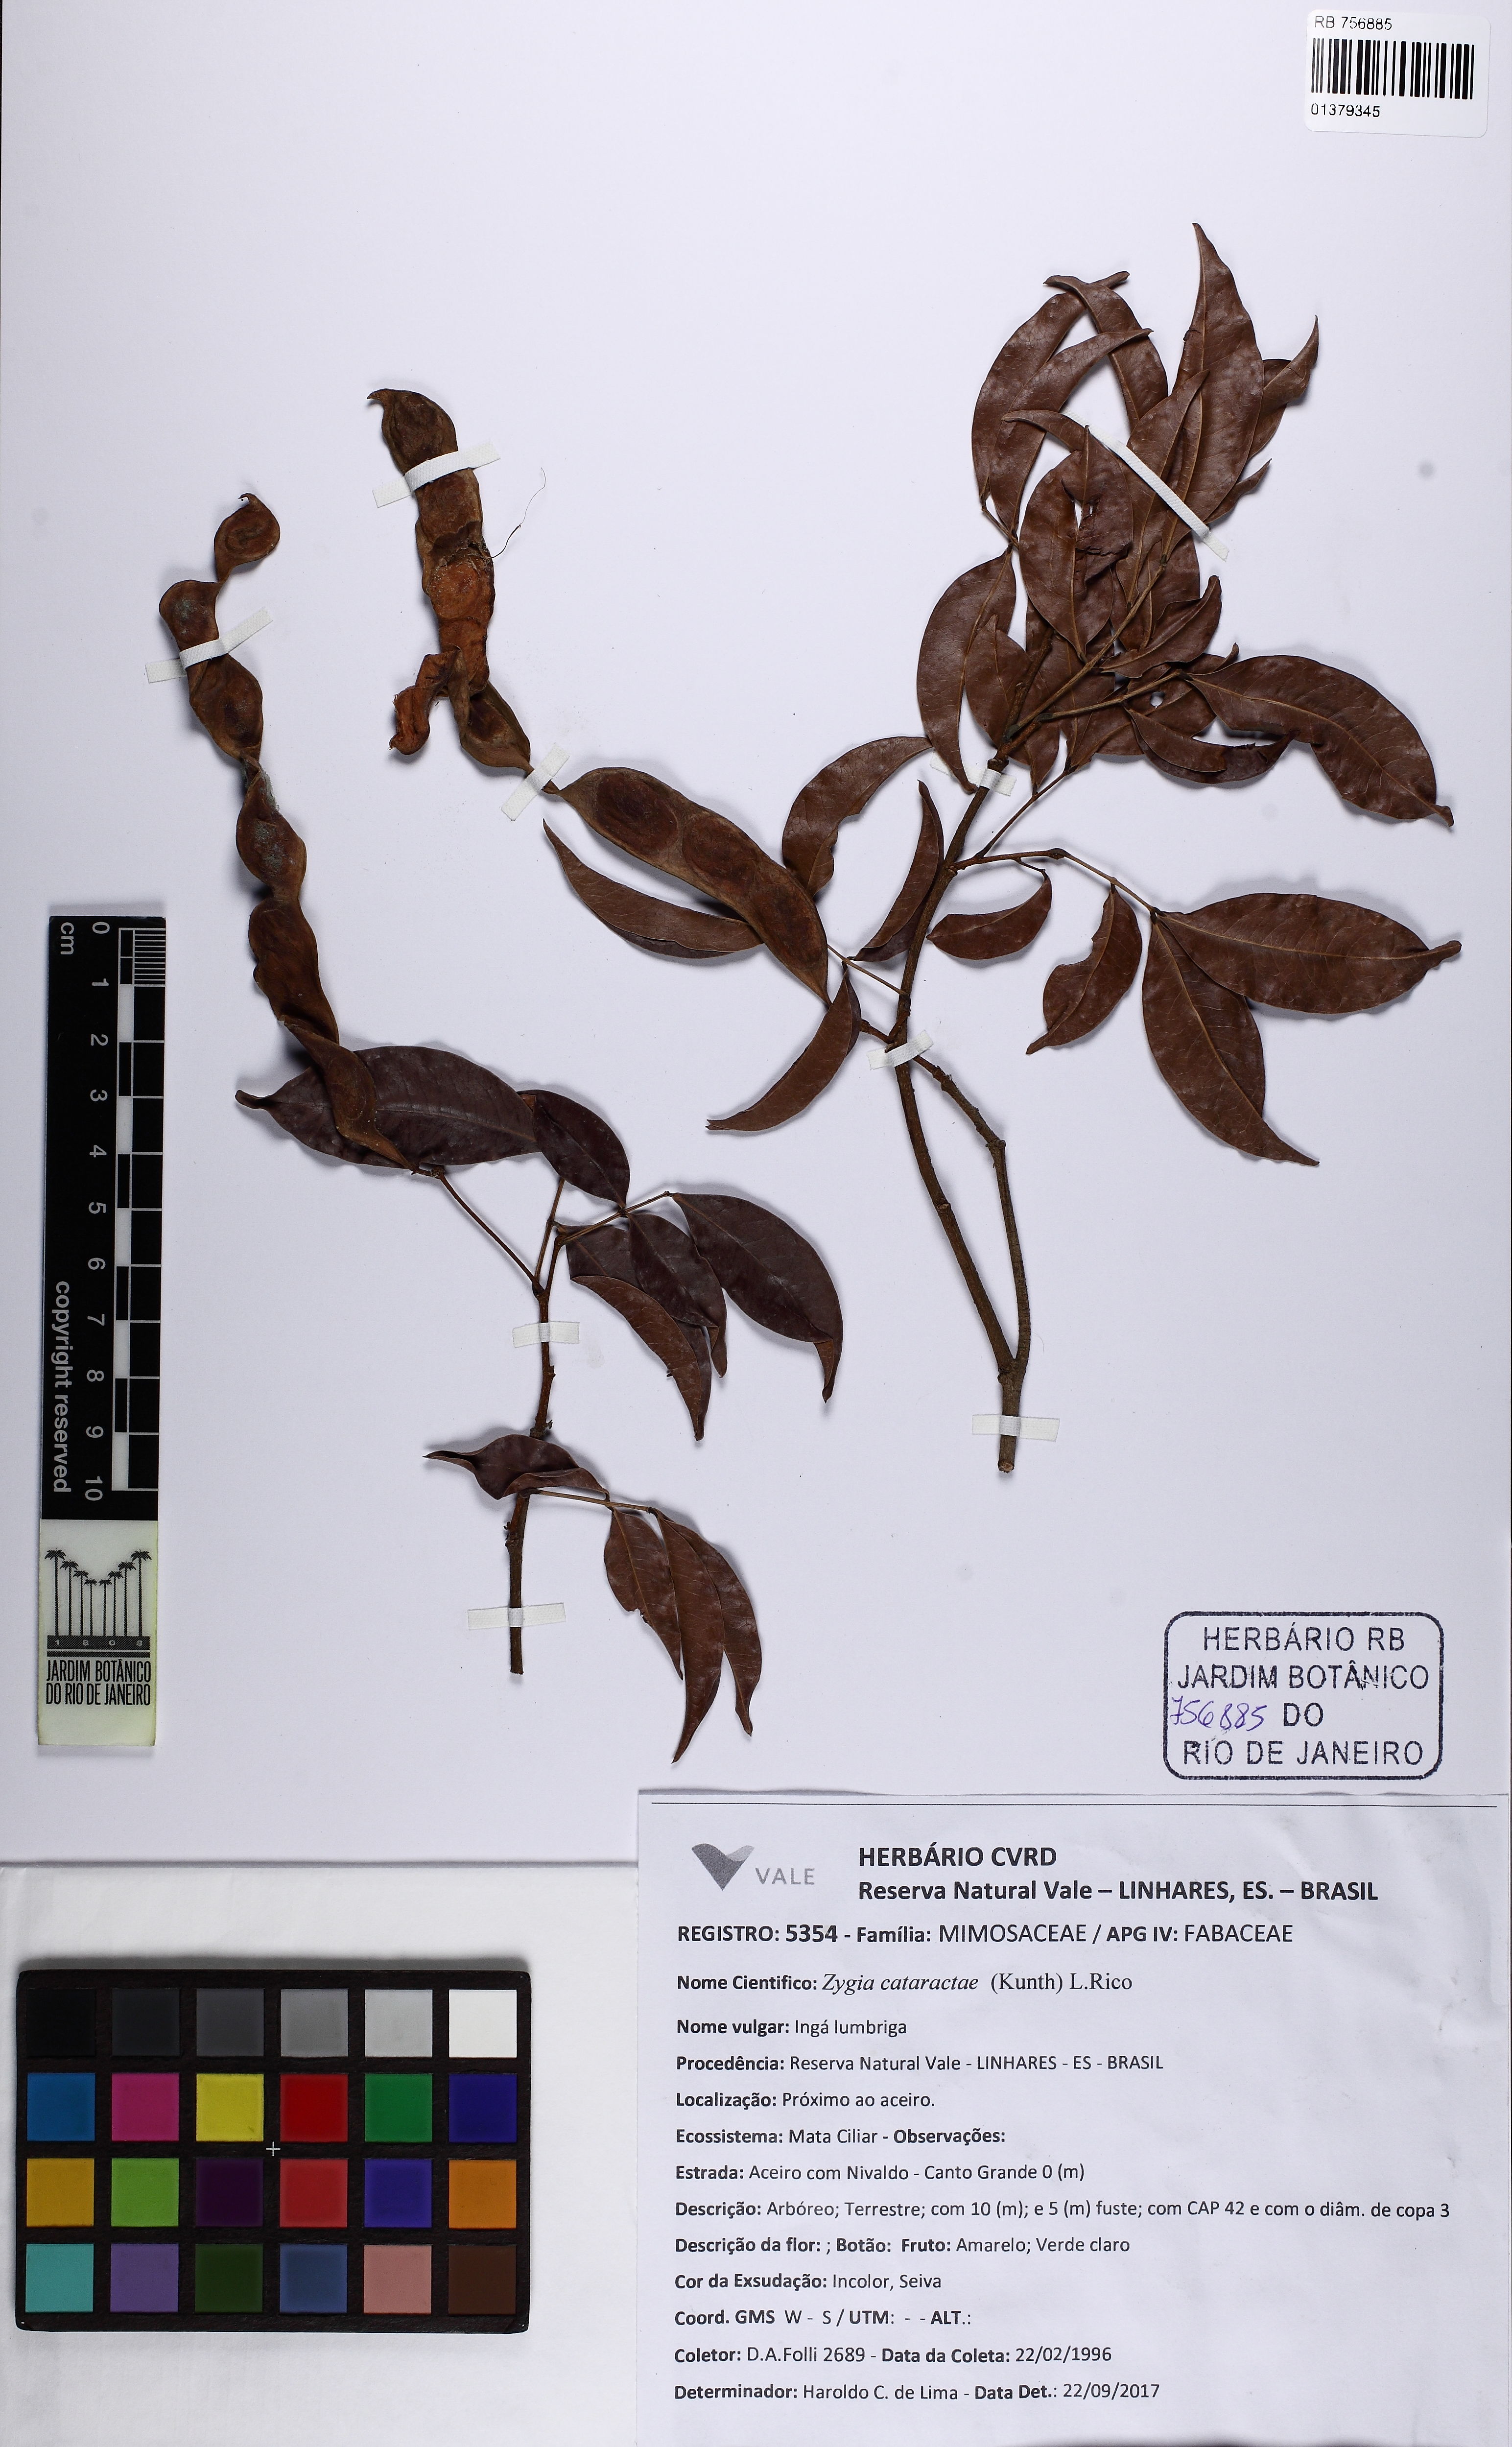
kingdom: Plantae
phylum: Tracheophyta
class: Magnoliopsida
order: Fabales
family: Fabaceae
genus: Zygia
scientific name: Zygia cataractae
